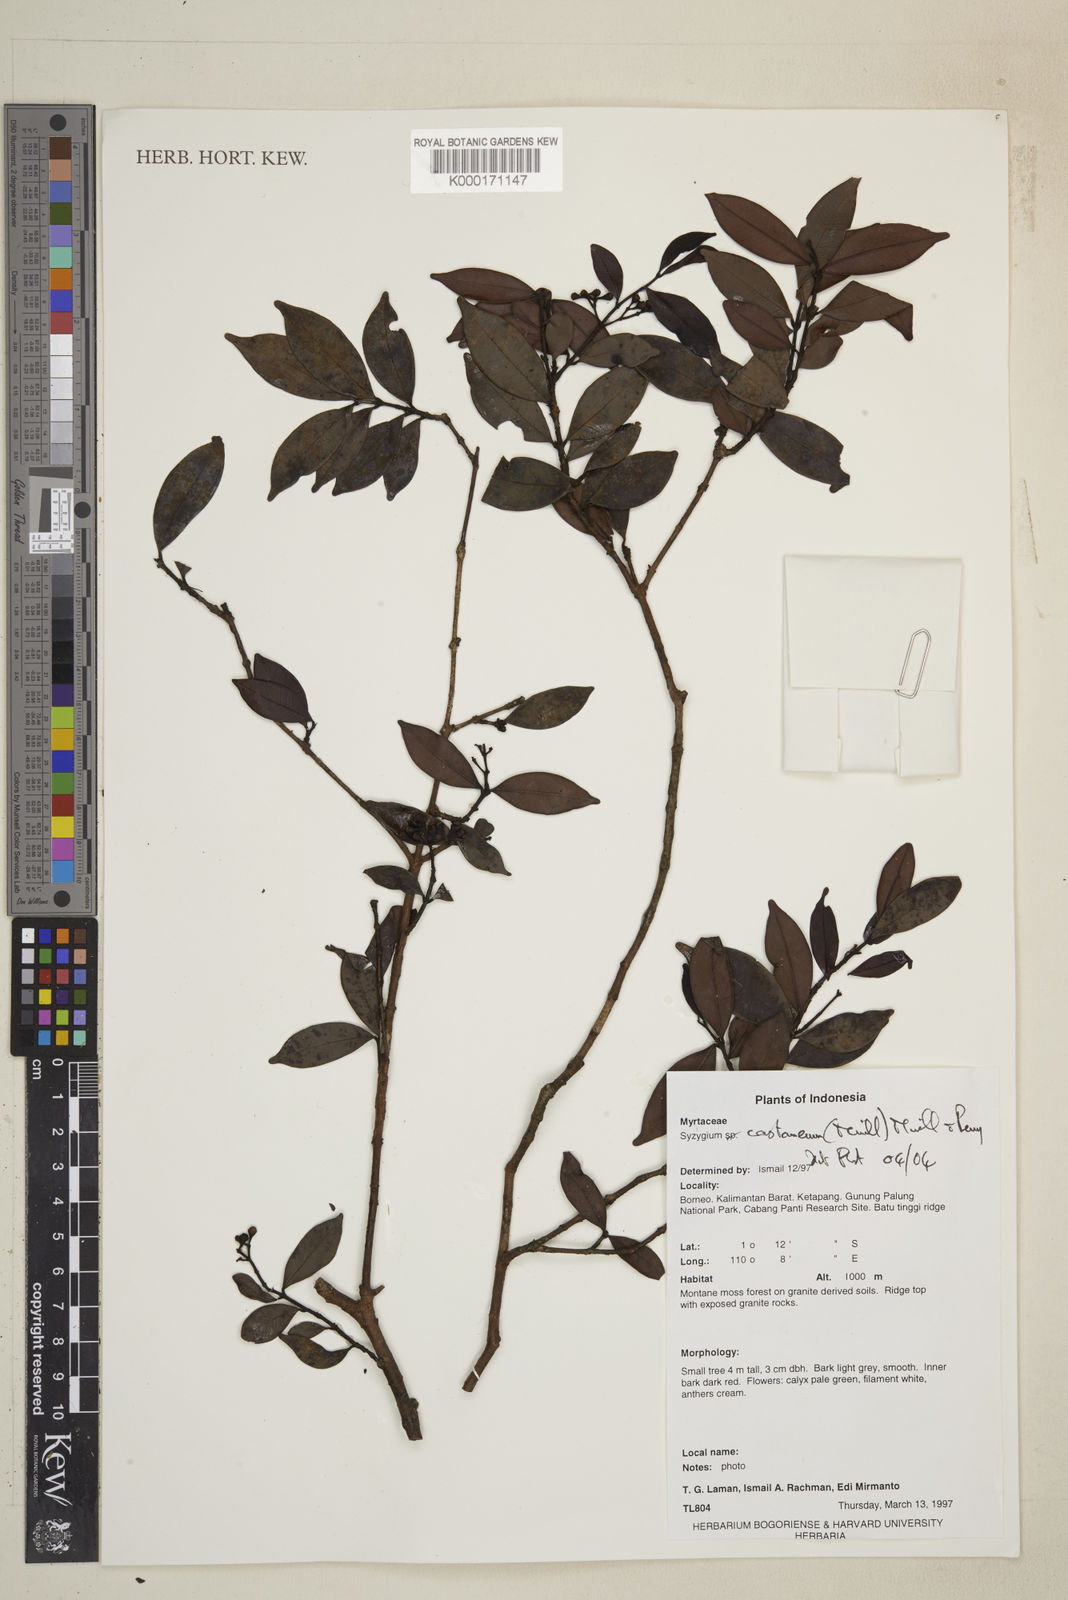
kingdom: Plantae
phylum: Tracheophyta
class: Magnoliopsida
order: Myrtales
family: Myrtaceae
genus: Syzygium
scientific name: Syzygium castaneum
